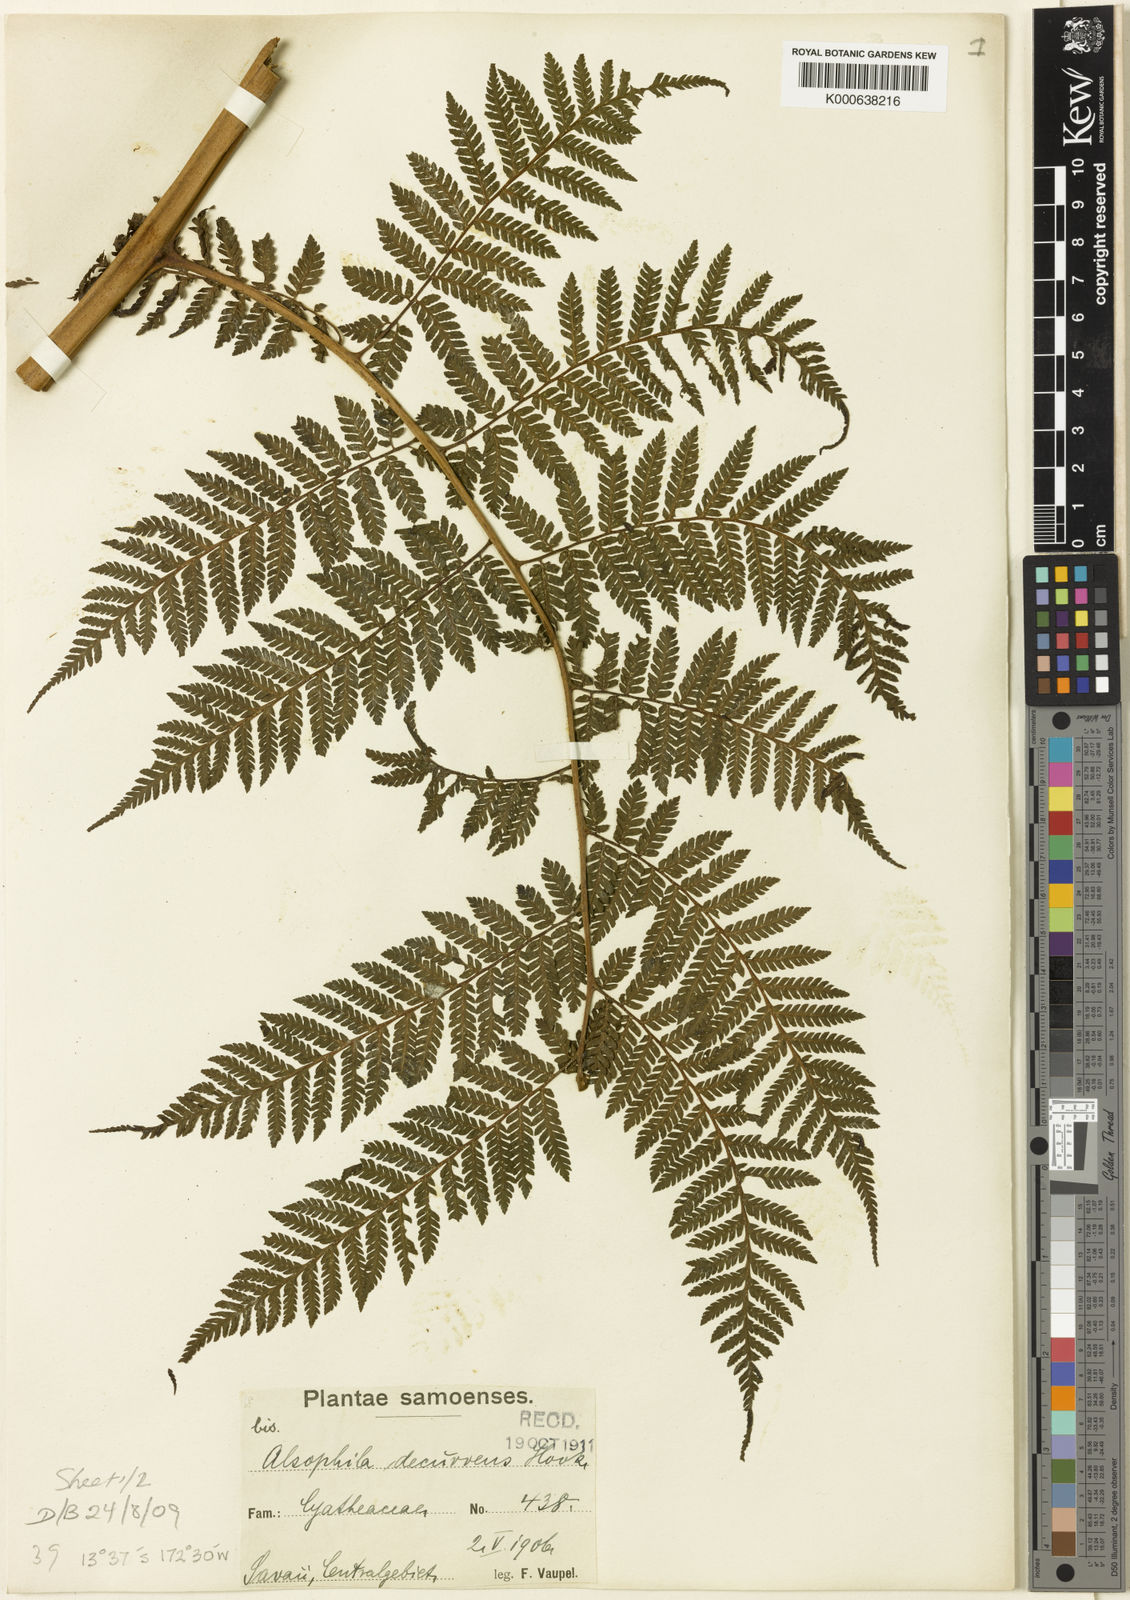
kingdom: Plantae
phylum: Tracheophyta
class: Polypodiopsida
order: Cyatheales
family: Cyatheaceae
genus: Cyathea
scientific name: Cyathea decurrens
